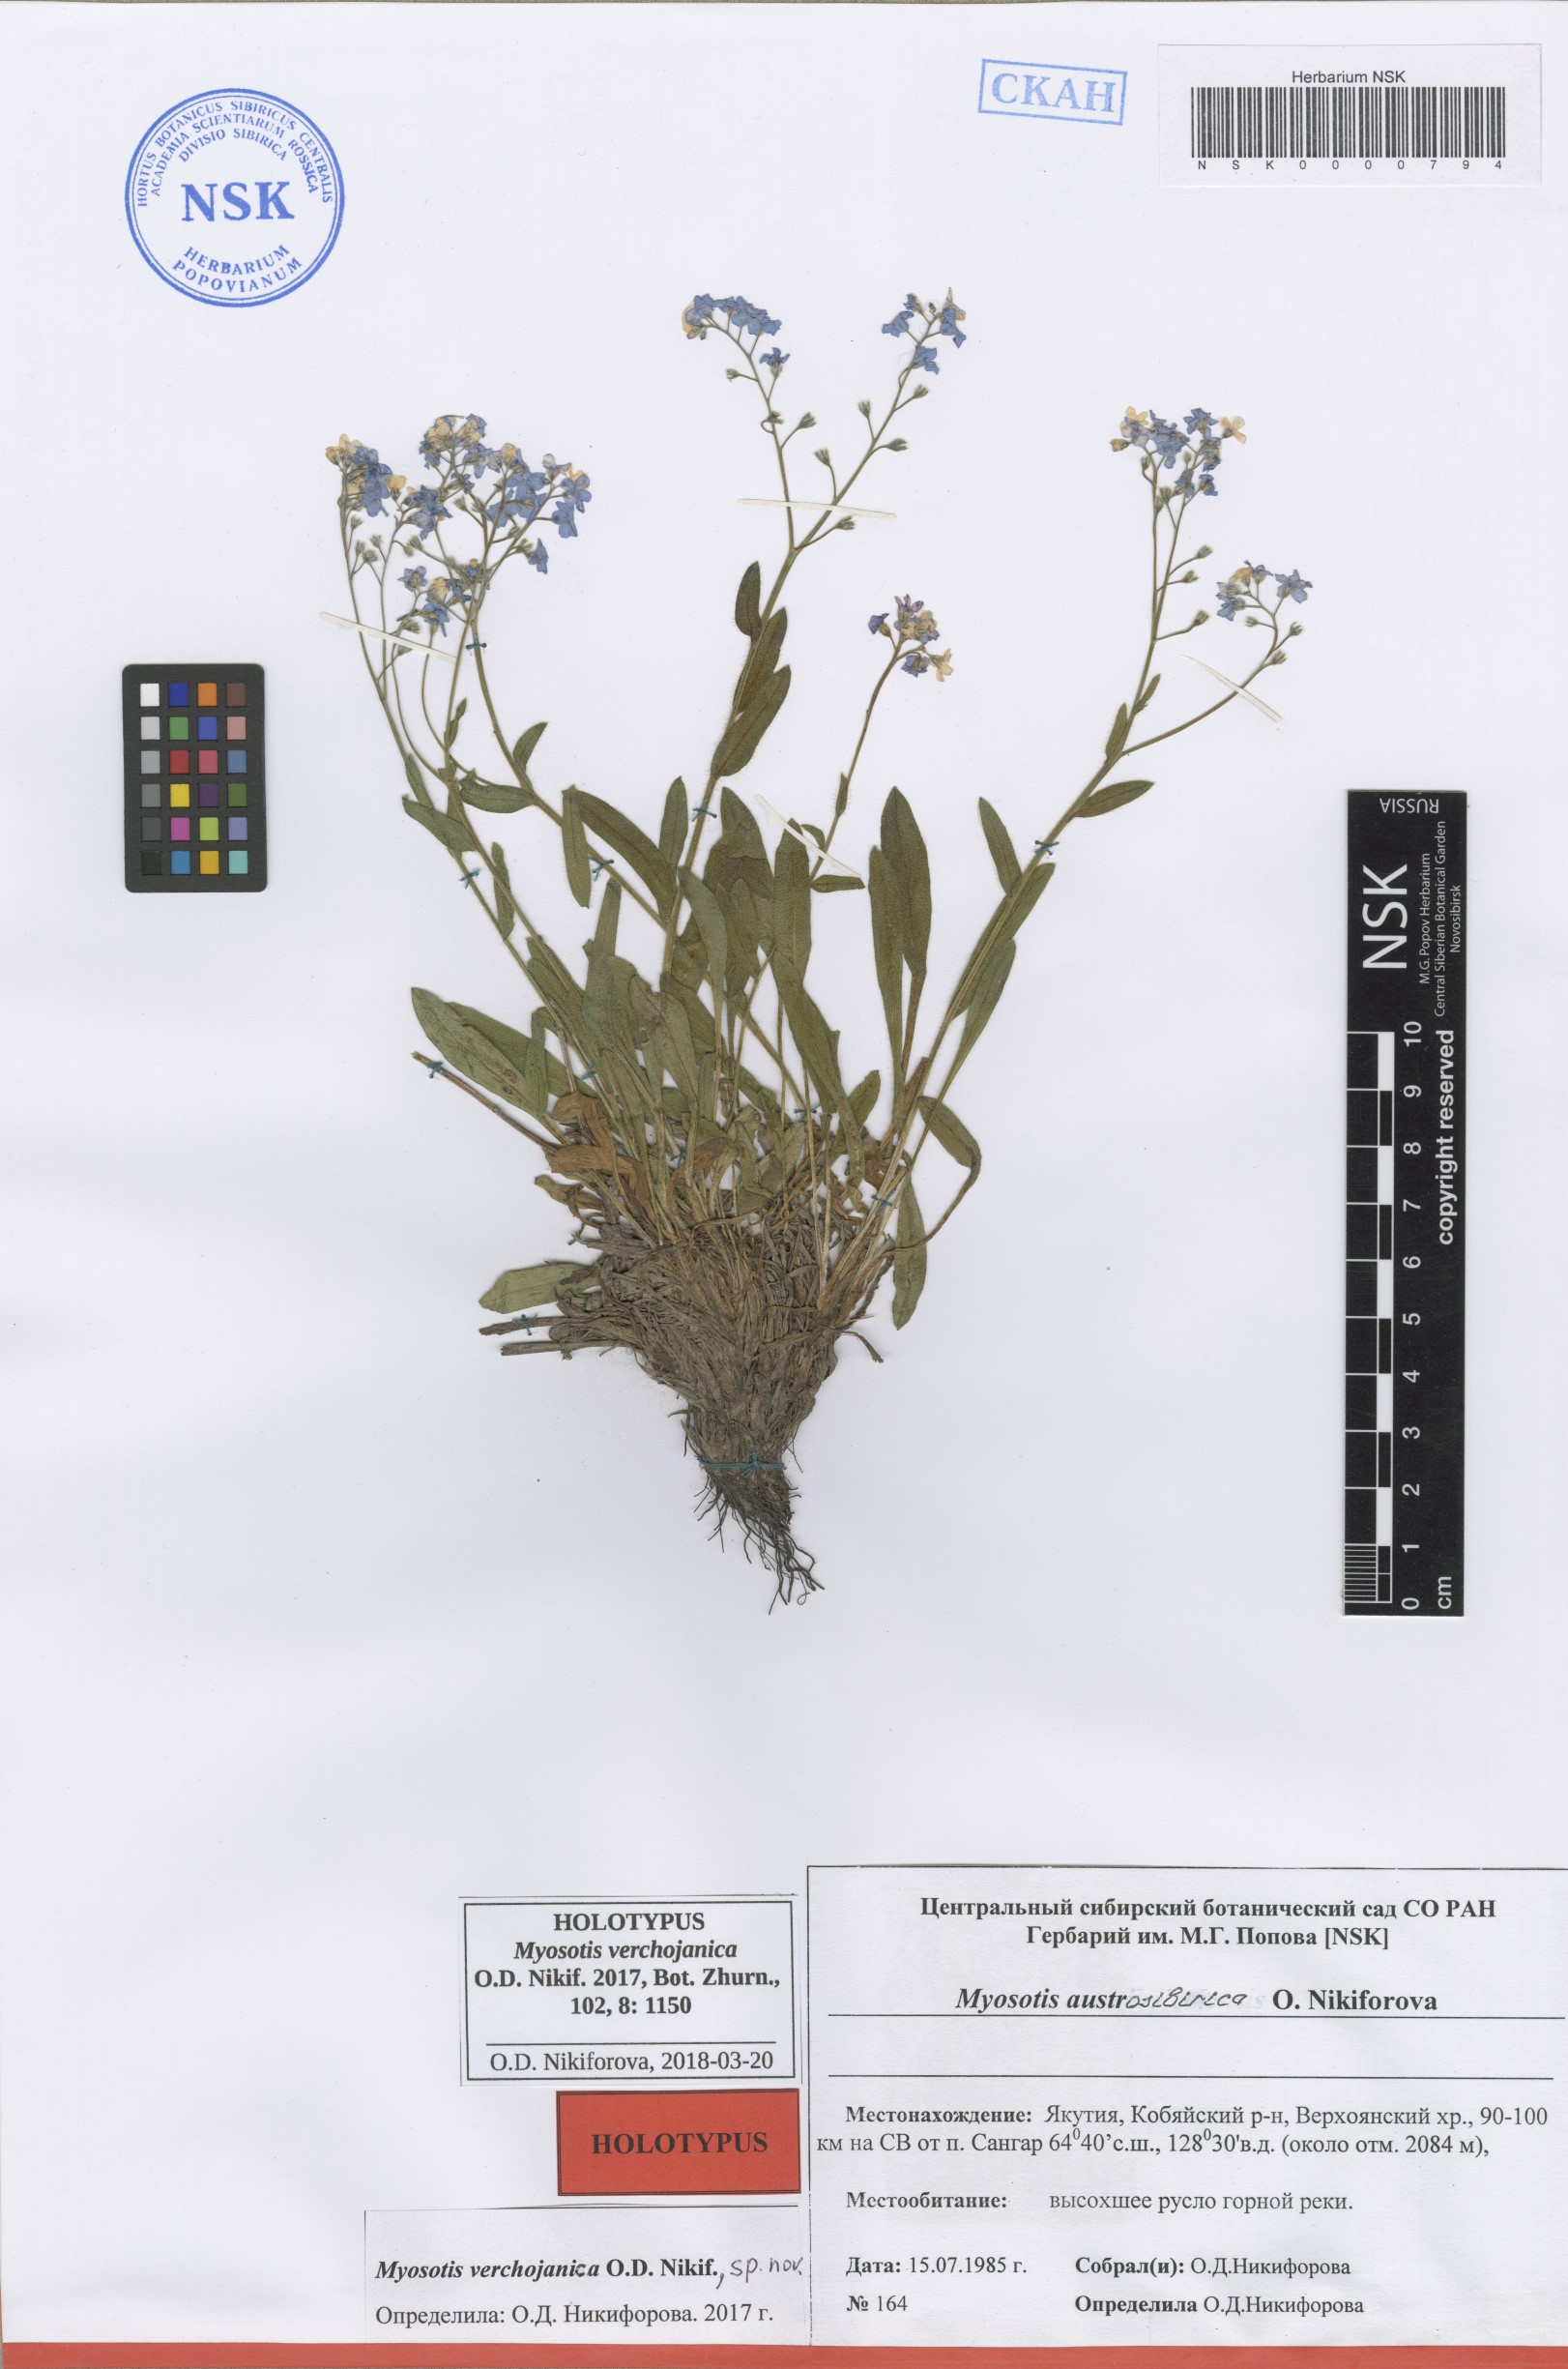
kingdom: Plantae
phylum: Tracheophyta
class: Magnoliopsida
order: Boraginales
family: Boraginaceae
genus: Myosotis
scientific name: Myosotis
